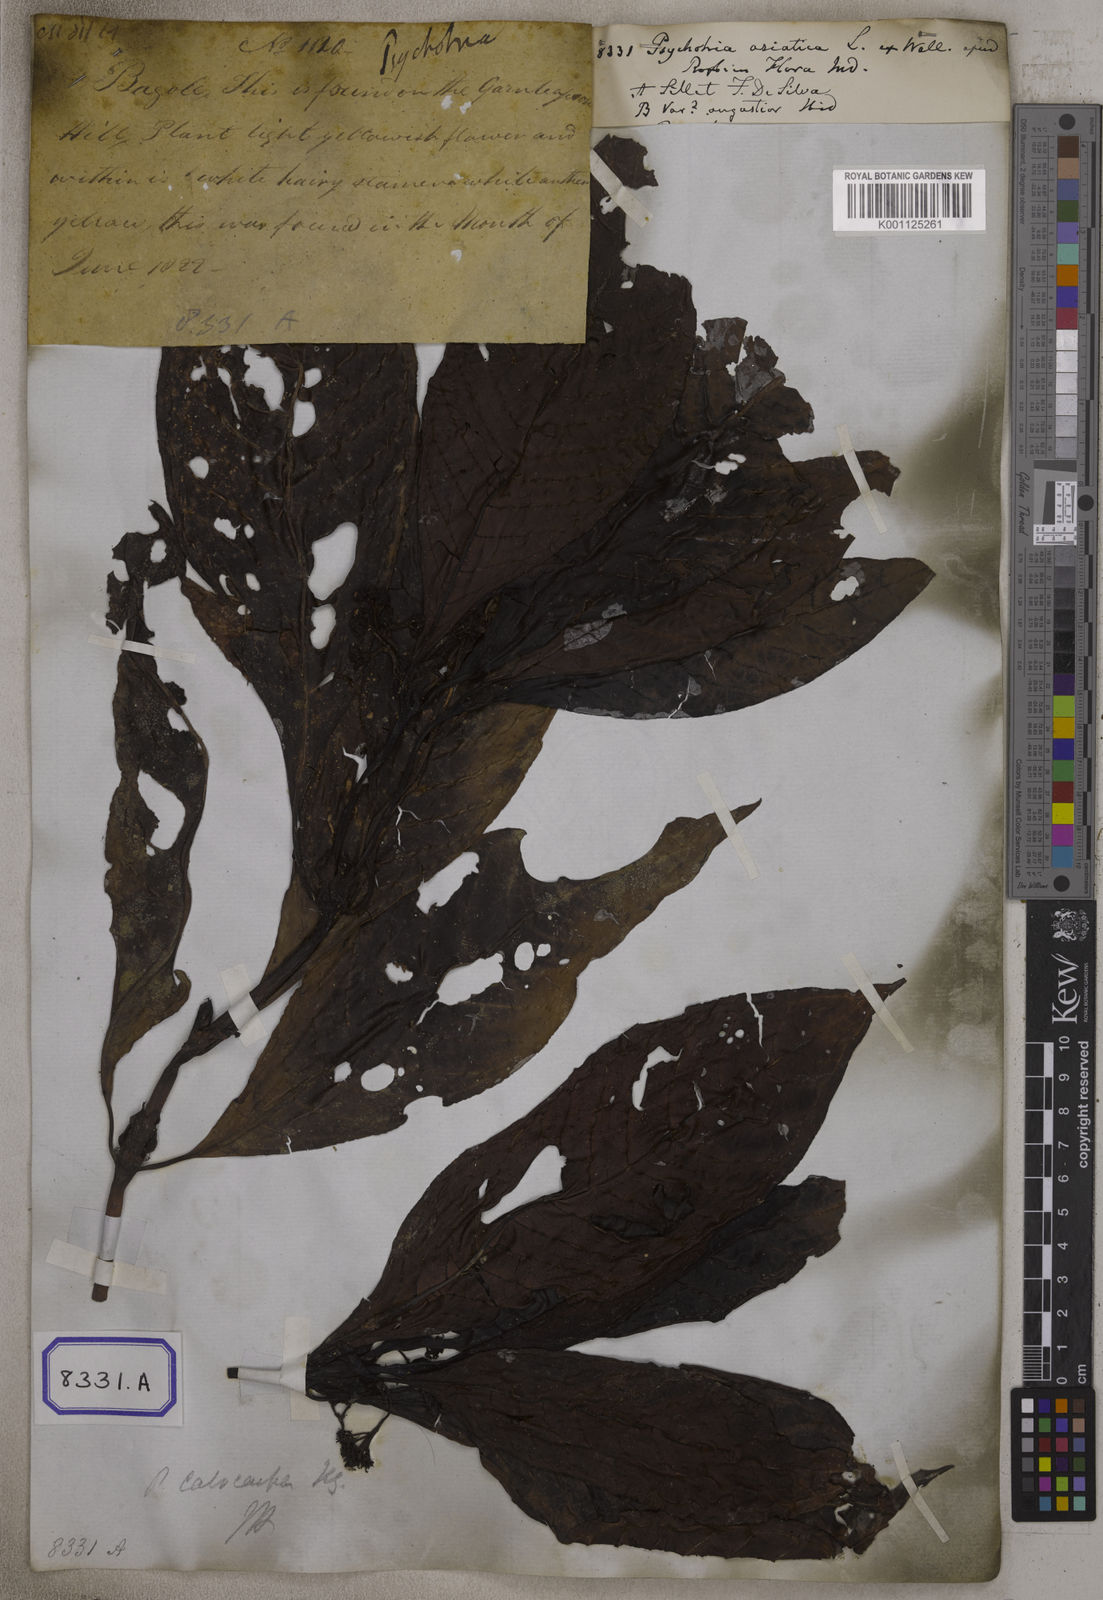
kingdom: Plantae
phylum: Tracheophyta
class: Magnoliopsida
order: Gentianales
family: Rubiaceae
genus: Psychotria
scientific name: Psychotria asiatica
